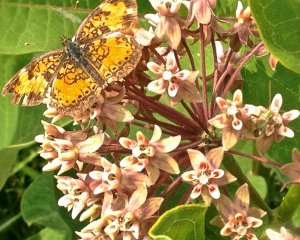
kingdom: Animalia
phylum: Arthropoda
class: Insecta
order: Lepidoptera
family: Nymphalidae
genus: Phyciodes
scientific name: Phyciodes tharos
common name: Northern Crescent
